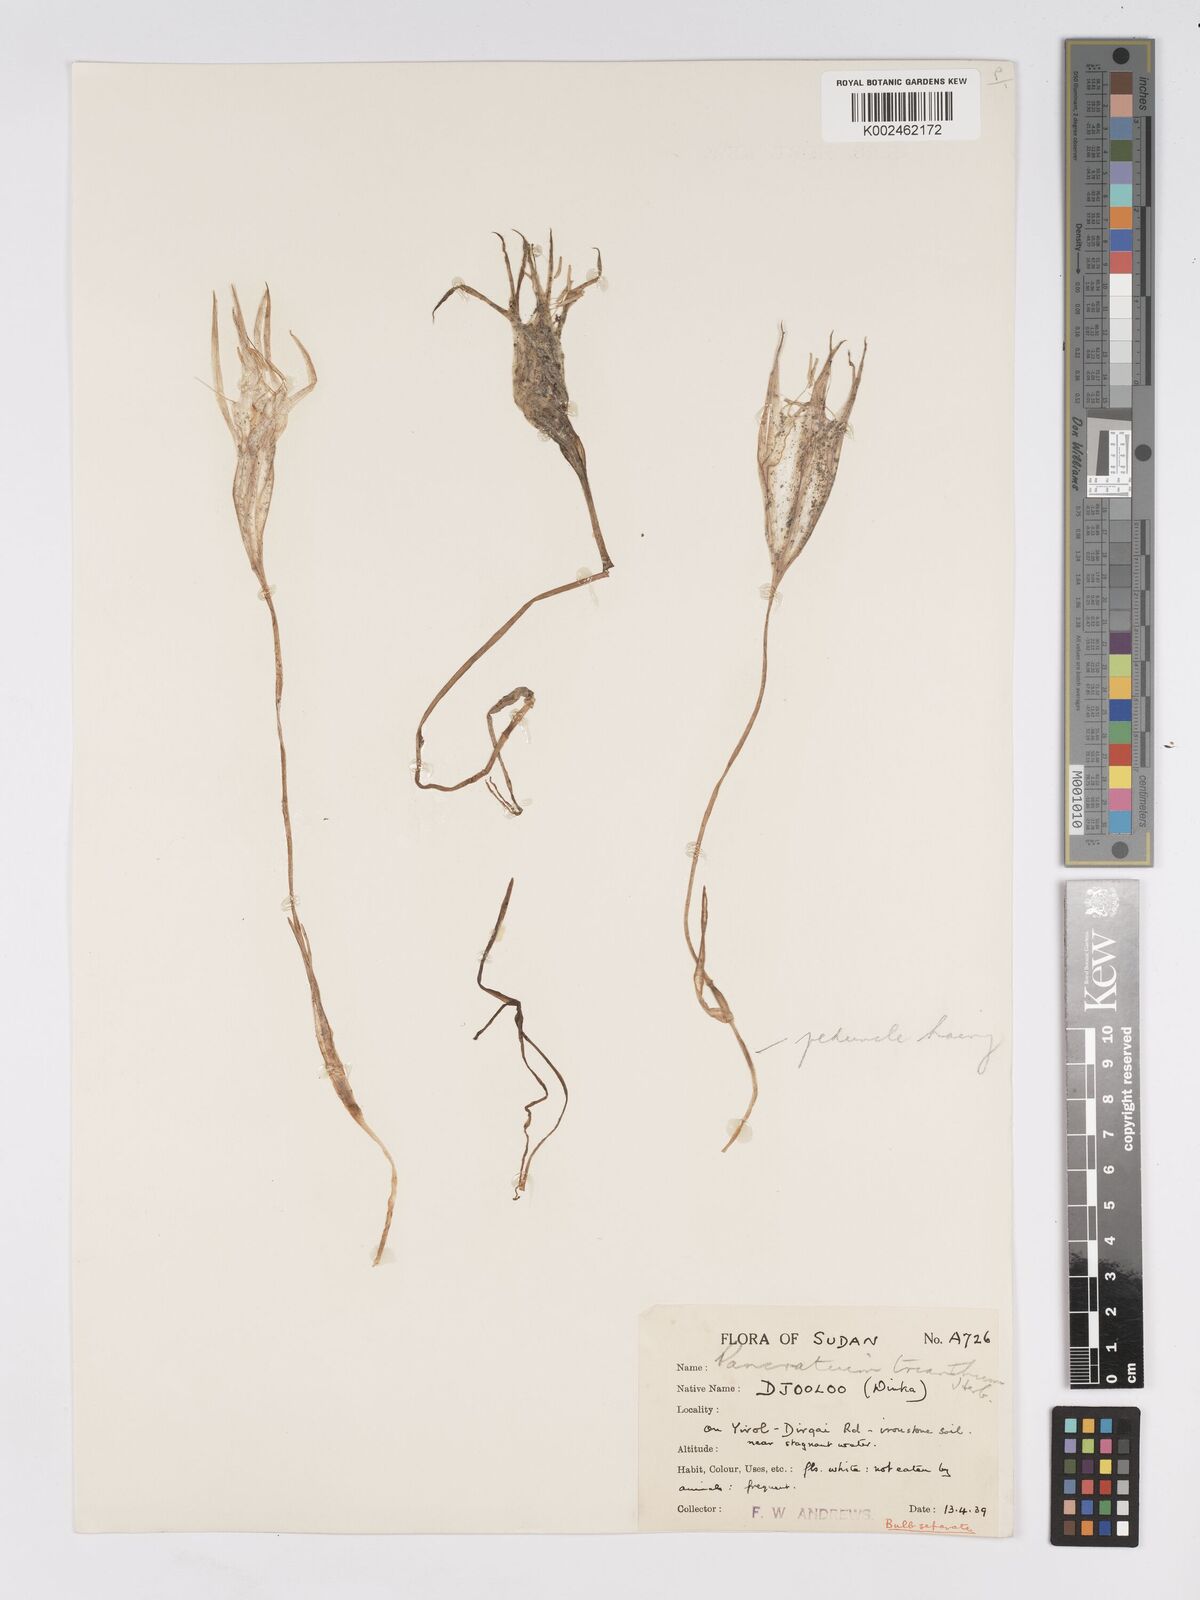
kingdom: Plantae
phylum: Tracheophyta
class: Liliopsida
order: Asparagales
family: Amaryllidaceae
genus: Pancratium
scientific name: Pancratium trianthum
